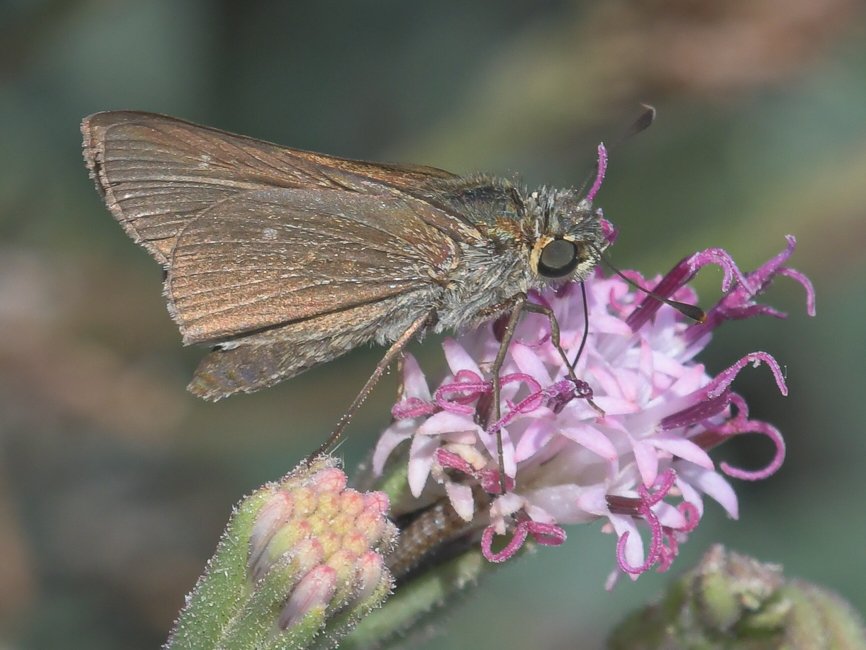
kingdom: Animalia
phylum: Arthropoda
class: Insecta
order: Lepidoptera
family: Hesperiidae
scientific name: Hesperiidae
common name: Skippers
